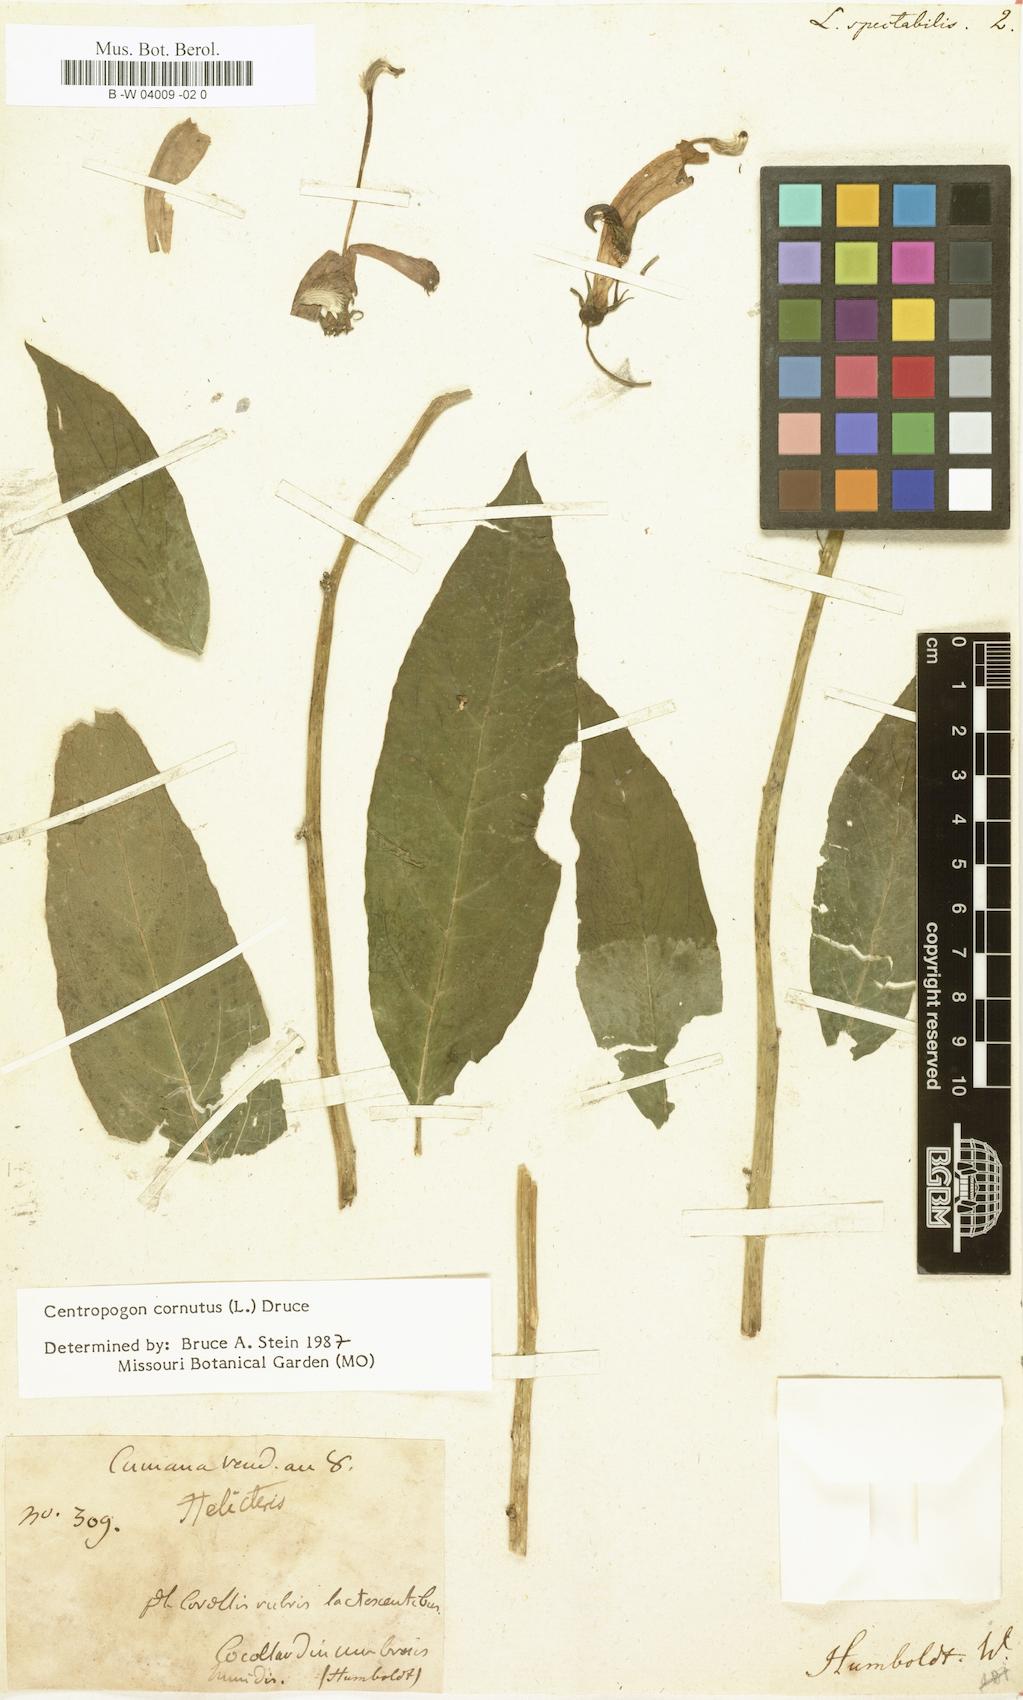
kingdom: Plantae
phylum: Tracheophyta
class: Magnoliopsida
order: Asterales
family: Campanulaceae
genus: Centropogon
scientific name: Centropogon cornutus
